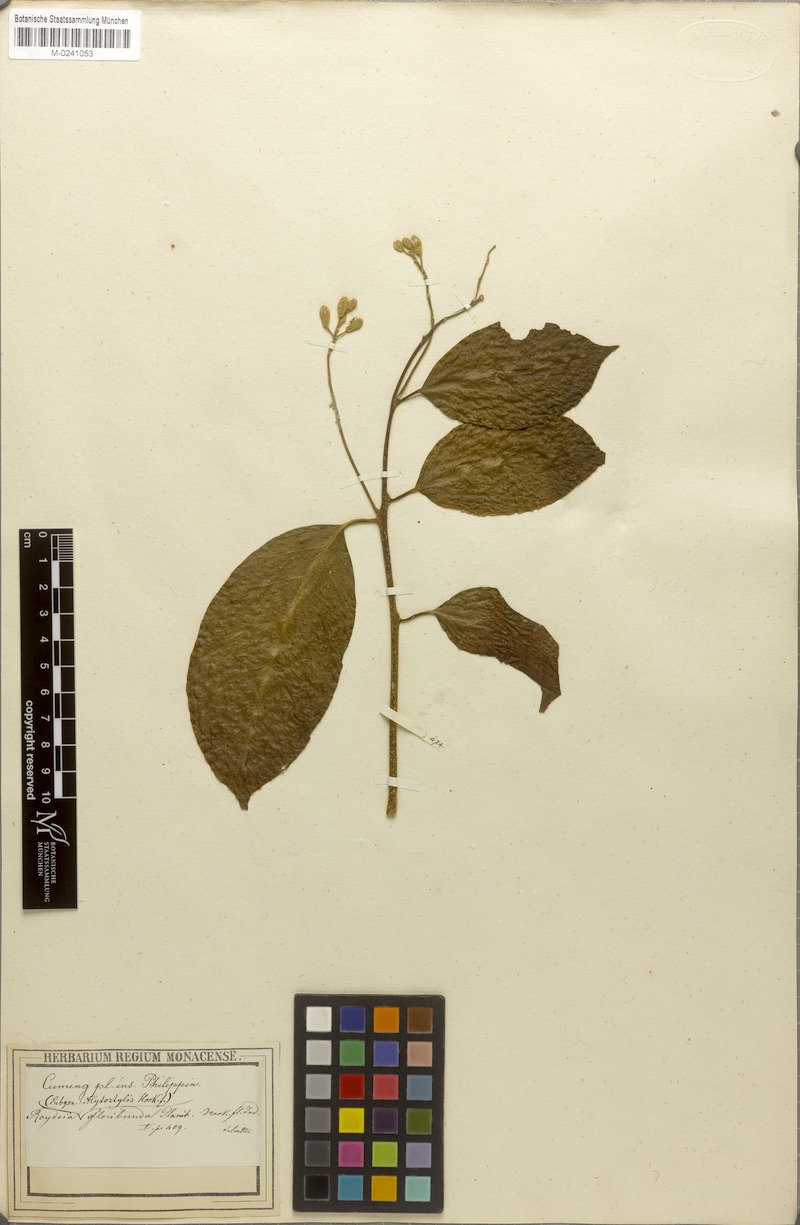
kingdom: Plantae
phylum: Tracheophyta
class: Magnoliopsida
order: Brassicales
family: Stixaceae
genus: Stixis
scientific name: Stixis philippinensis
